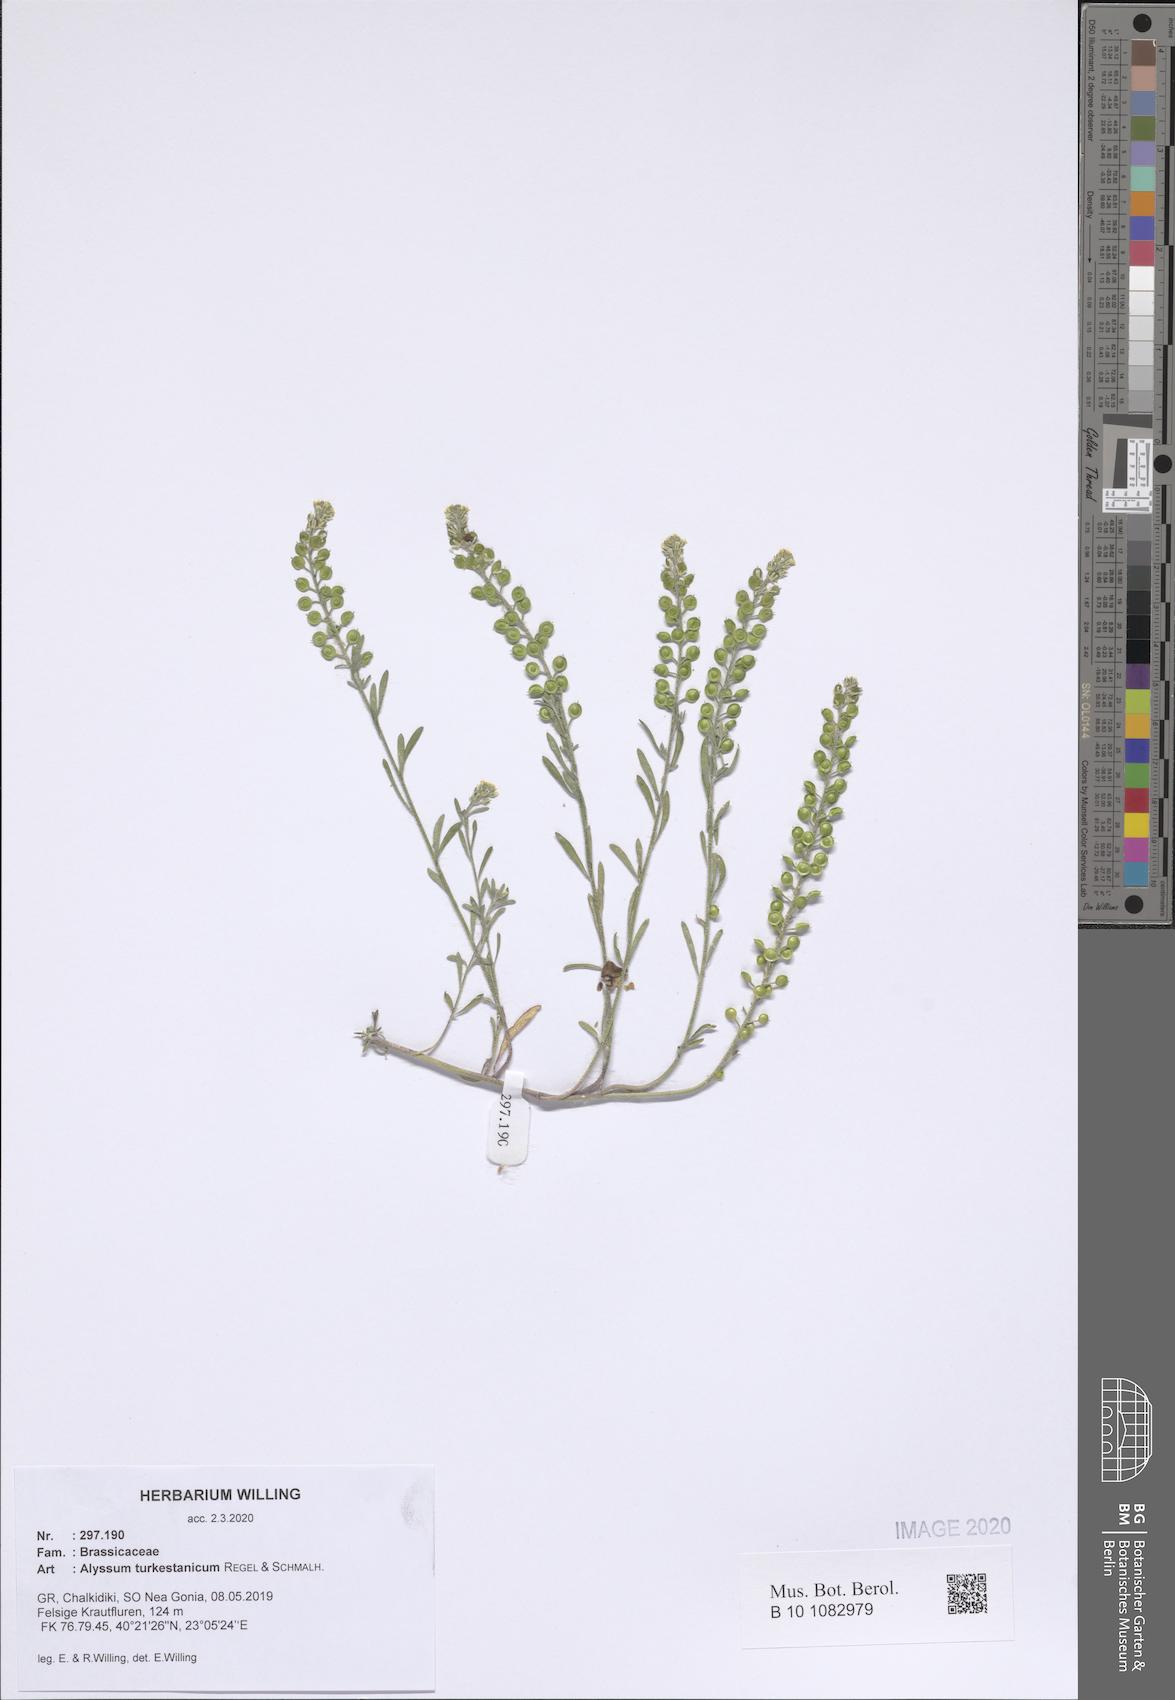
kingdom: Plantae
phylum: Tracheophyta
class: Magnoliopsida
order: Brassicales
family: Brassicaceae
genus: Alyssum
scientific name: Alyssum turkestanicum
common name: Desert alyssum
